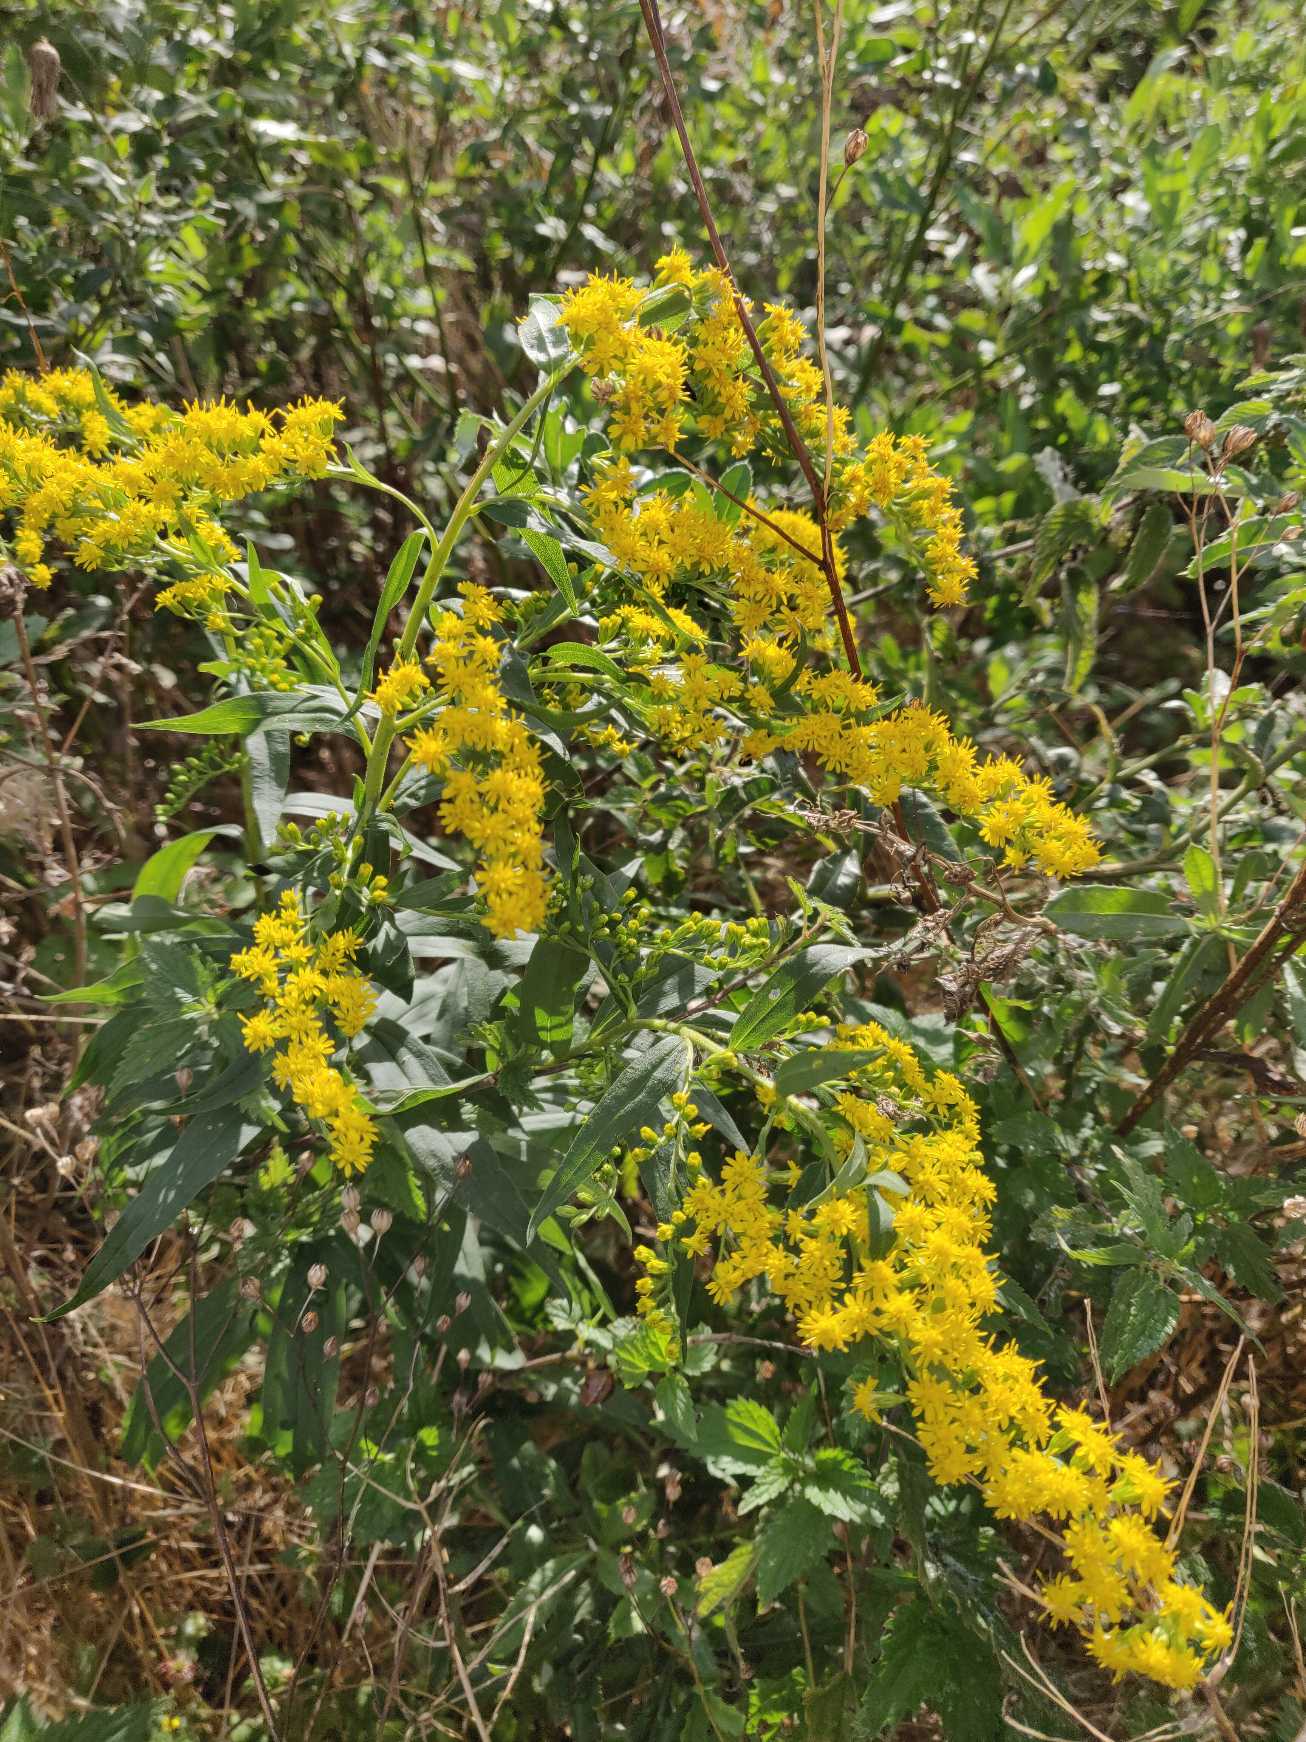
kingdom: Plantae
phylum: Tracheophyta
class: Magnoliopsida
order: Asterales
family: Asteraceae
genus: Solidago
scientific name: Solidago canadensis
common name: Kanadisk gyldenris
